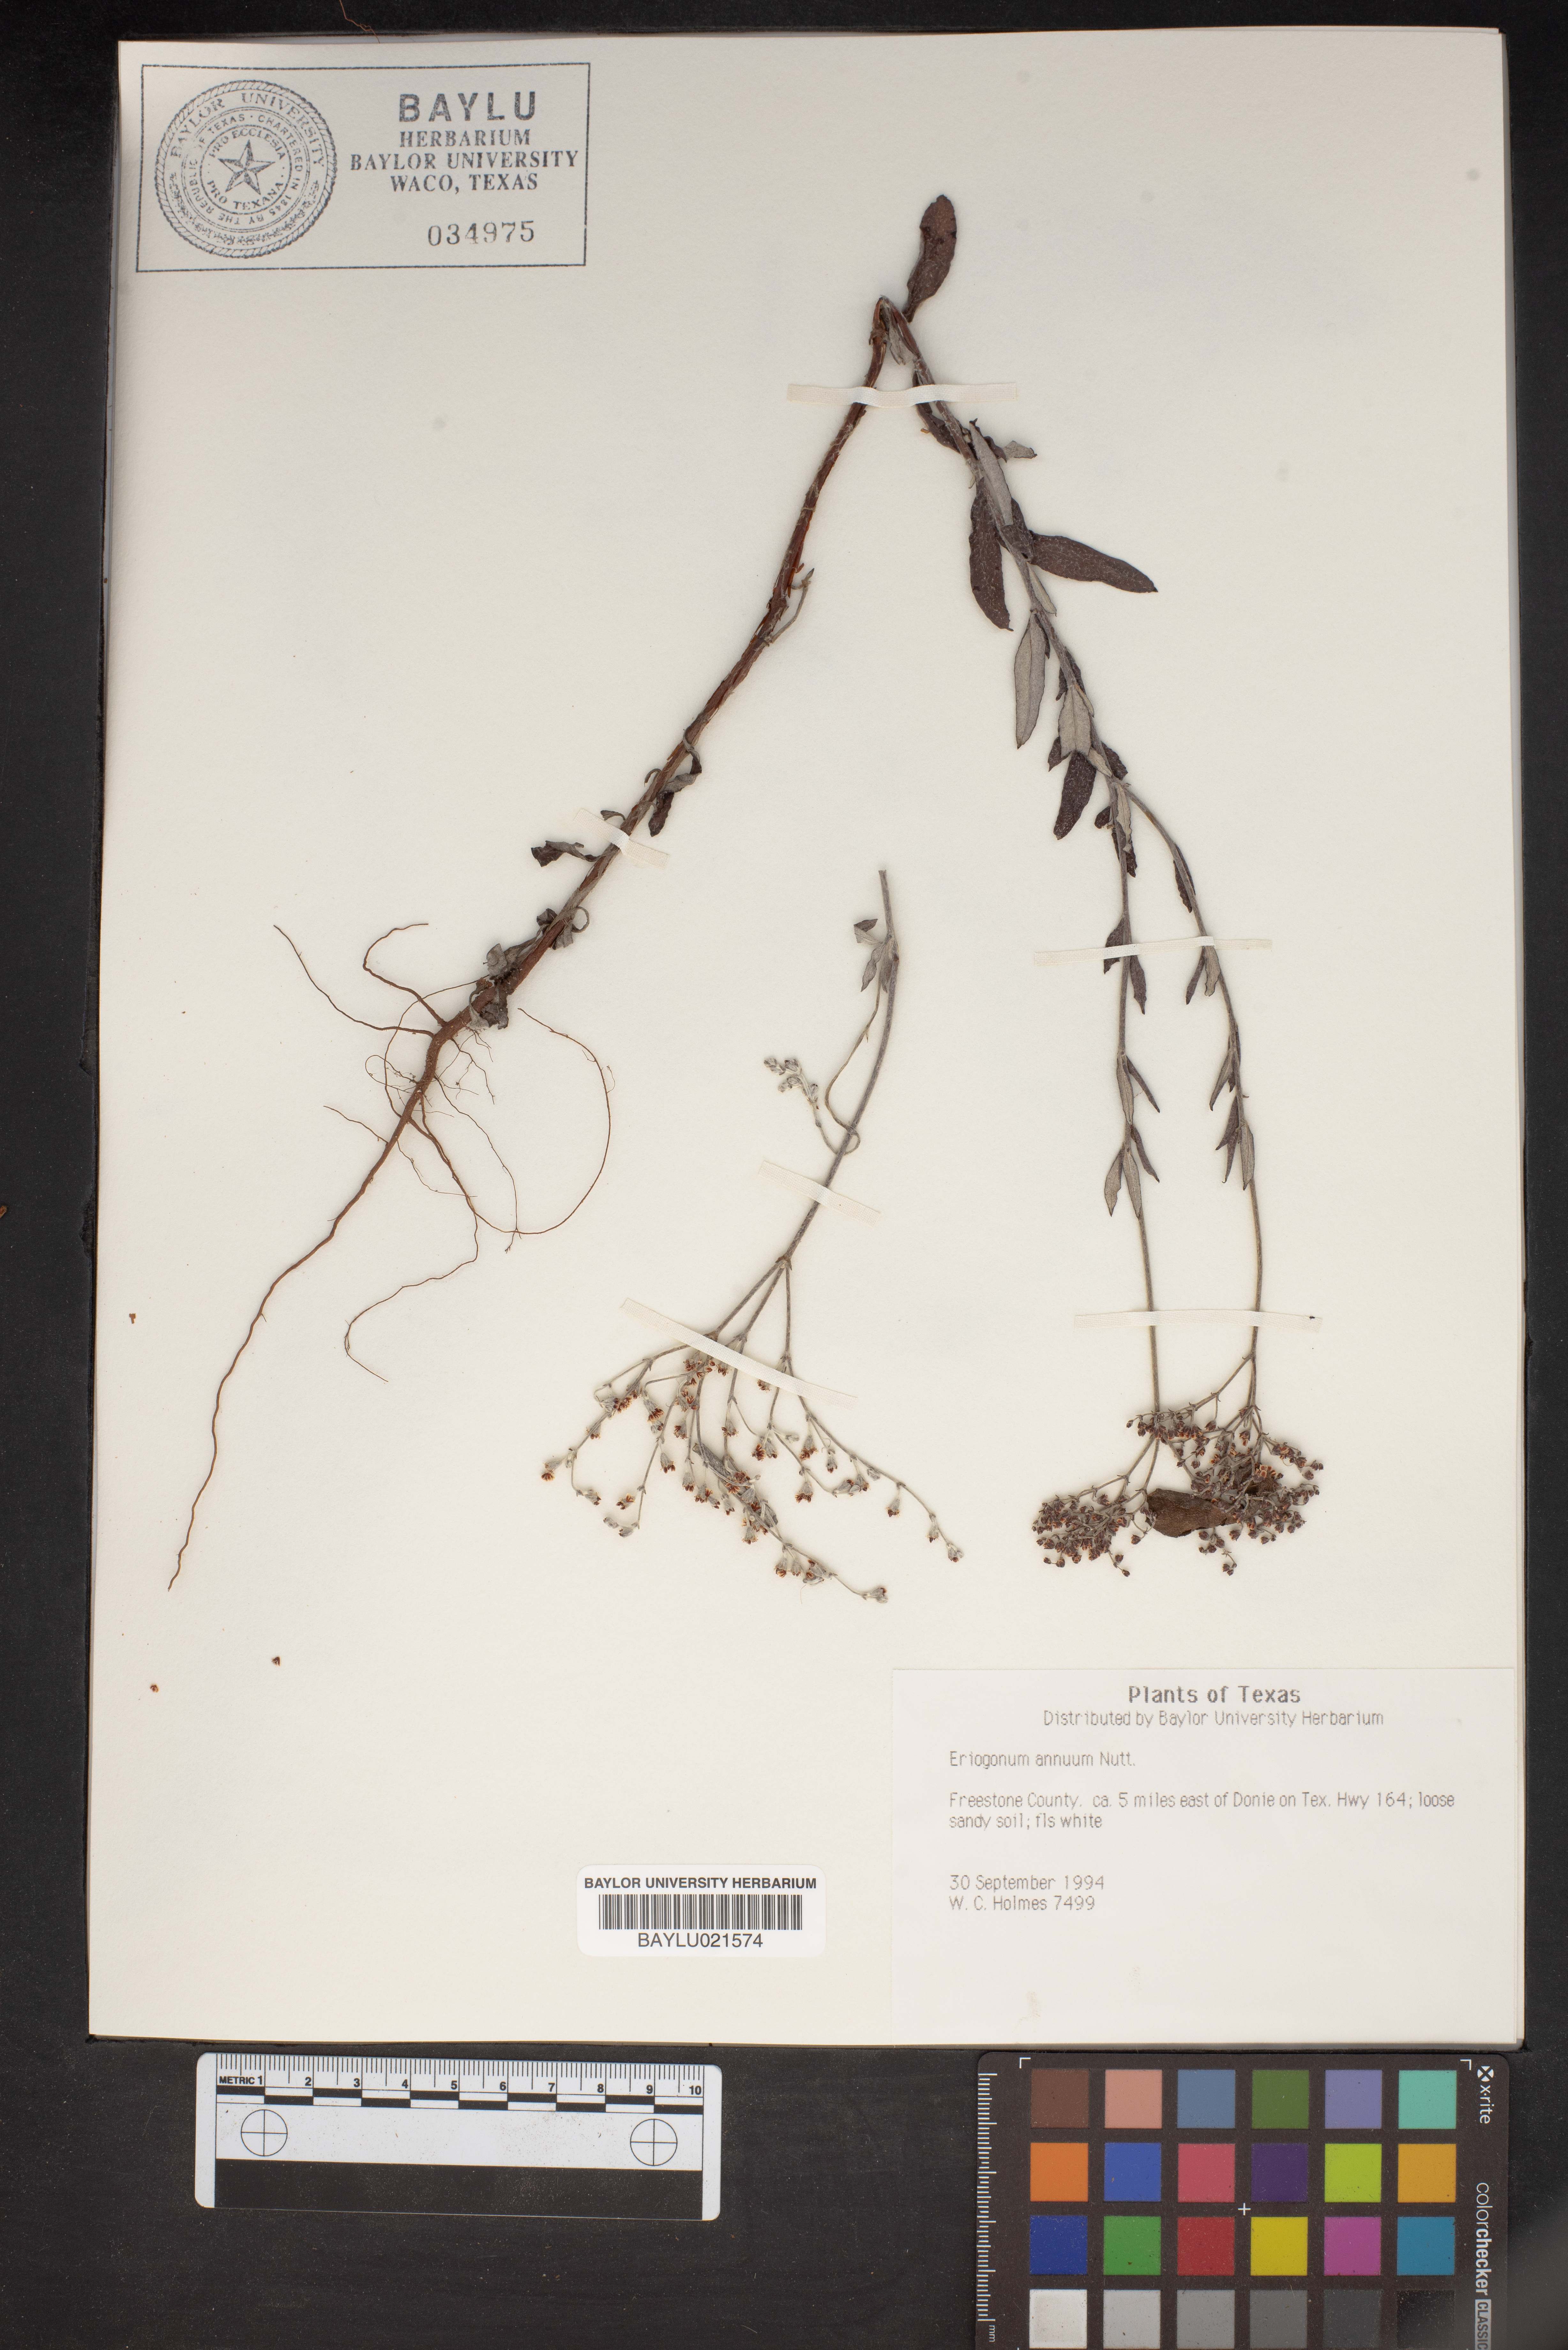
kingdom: Plantae
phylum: Tracheophyta
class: Magnoliopsida
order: Caryophyllales
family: Polygonaceae
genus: Eriogonum
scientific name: Eriogonum annuum
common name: Annual wild buckwheat
